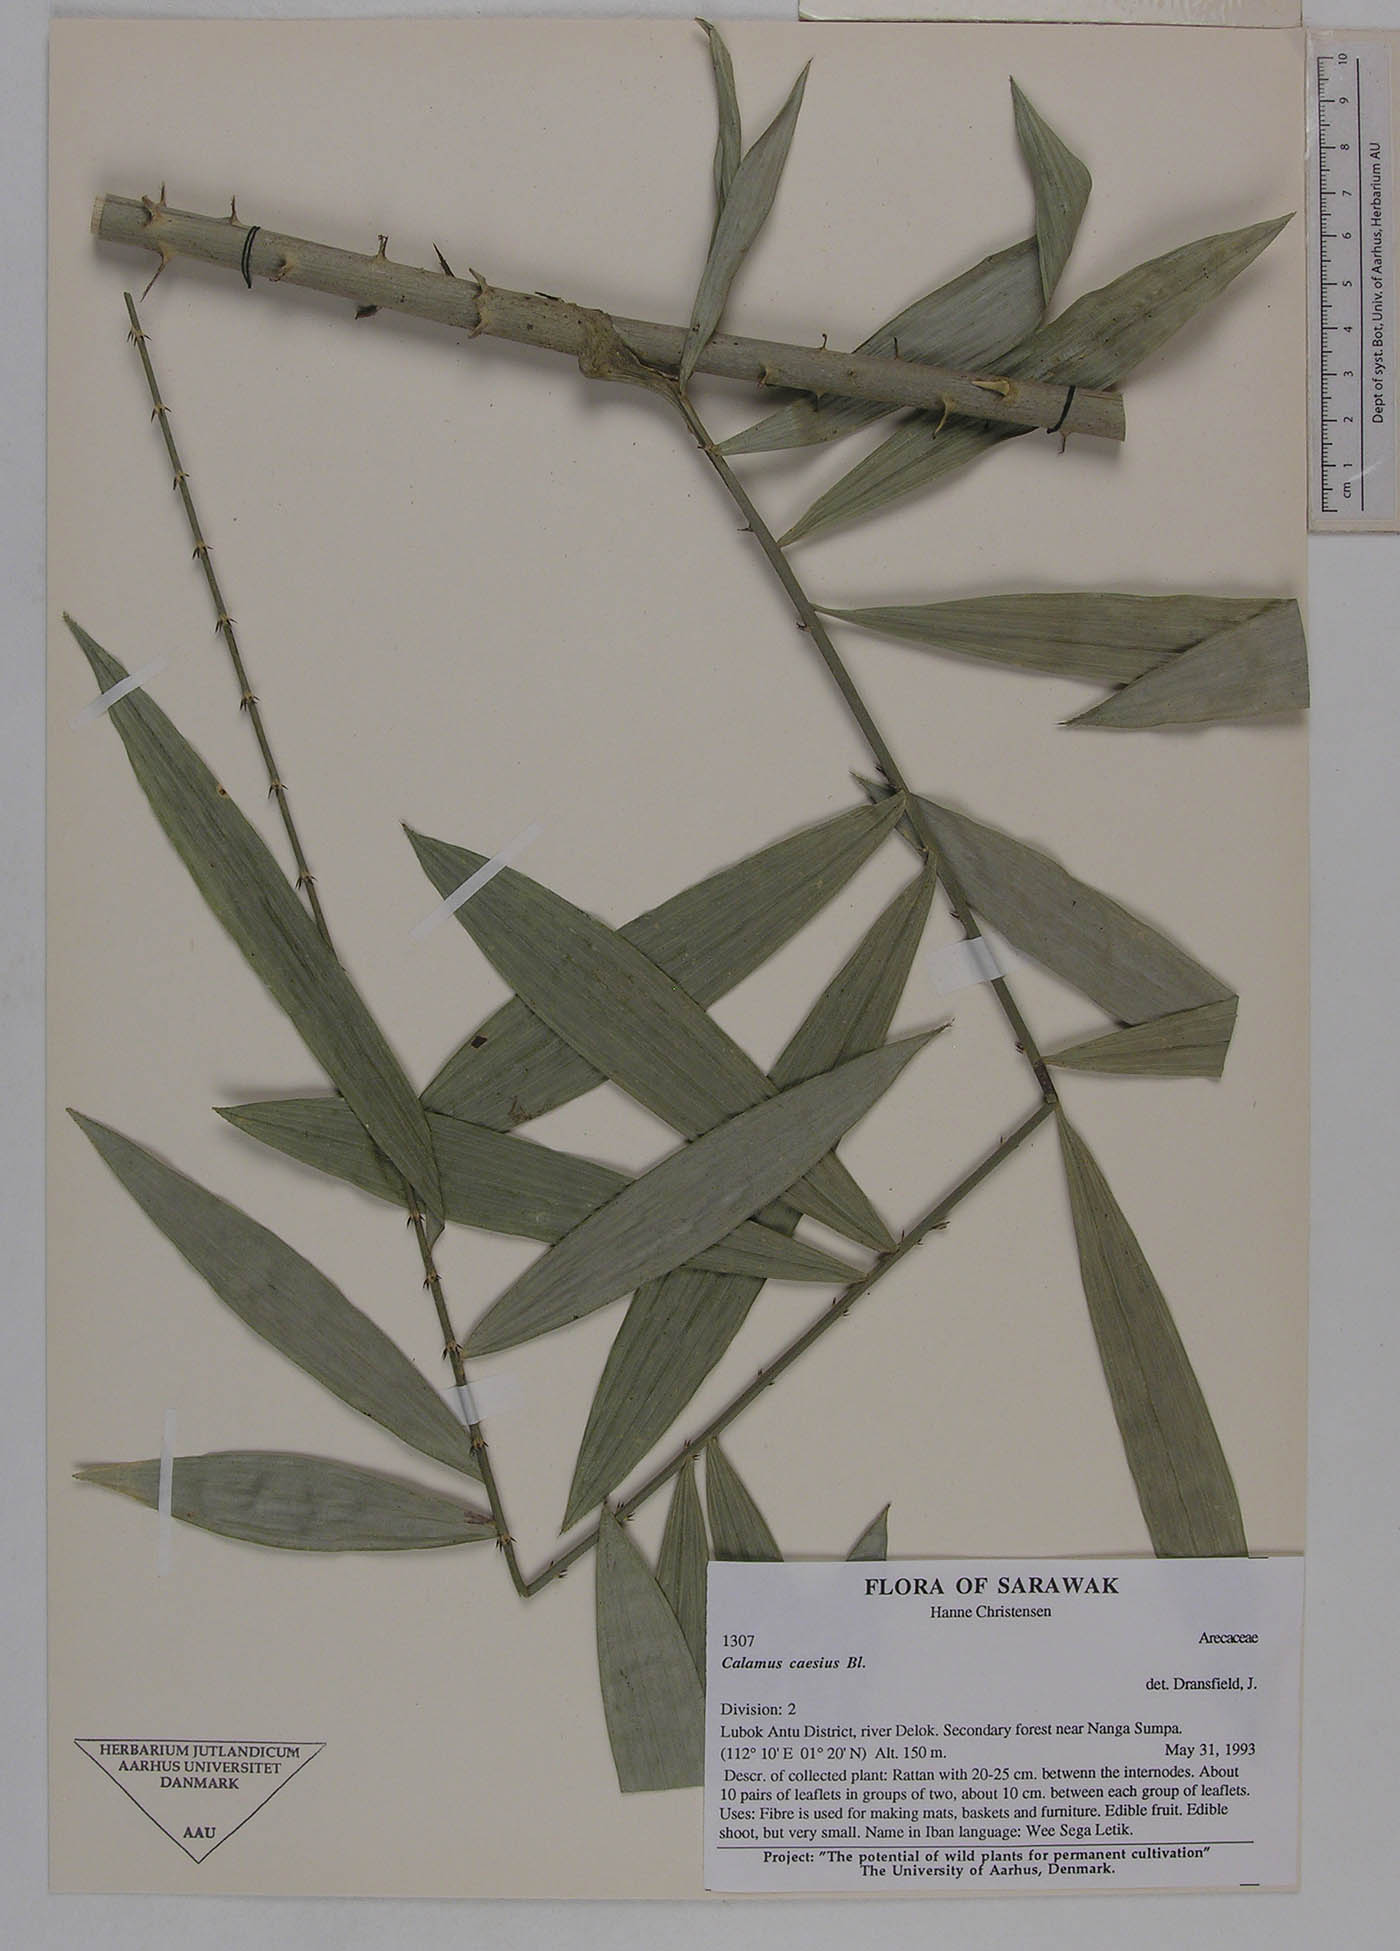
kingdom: Plantae
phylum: Tracheophyta
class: Liliopsida
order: Arecales
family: Arecaceae
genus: Calamus
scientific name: Calamus caesius
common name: Rattan palm
